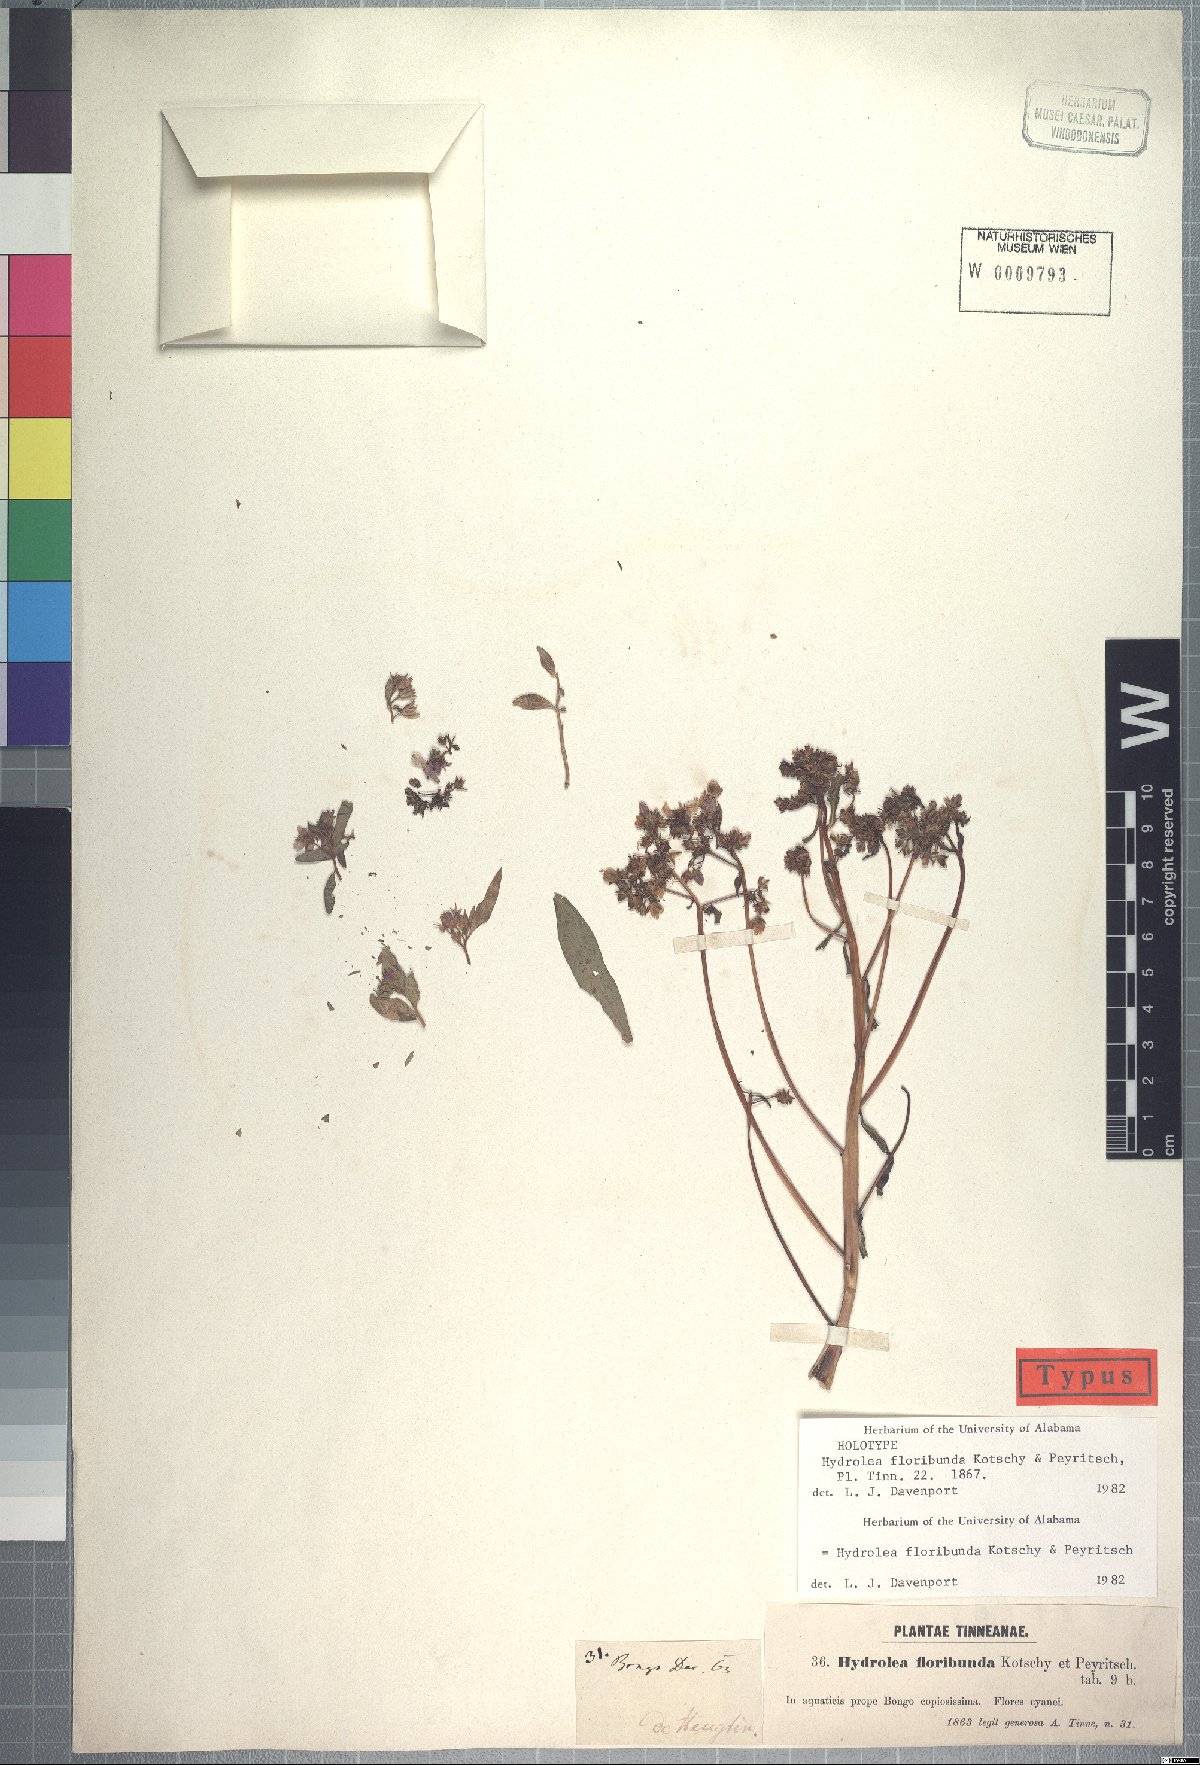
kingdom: Plantae
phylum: Tracheophyta
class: Magnoliopsida
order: Solanales
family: Hydroleaceae
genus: Hydrolea
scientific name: Hydrolea floribunda
